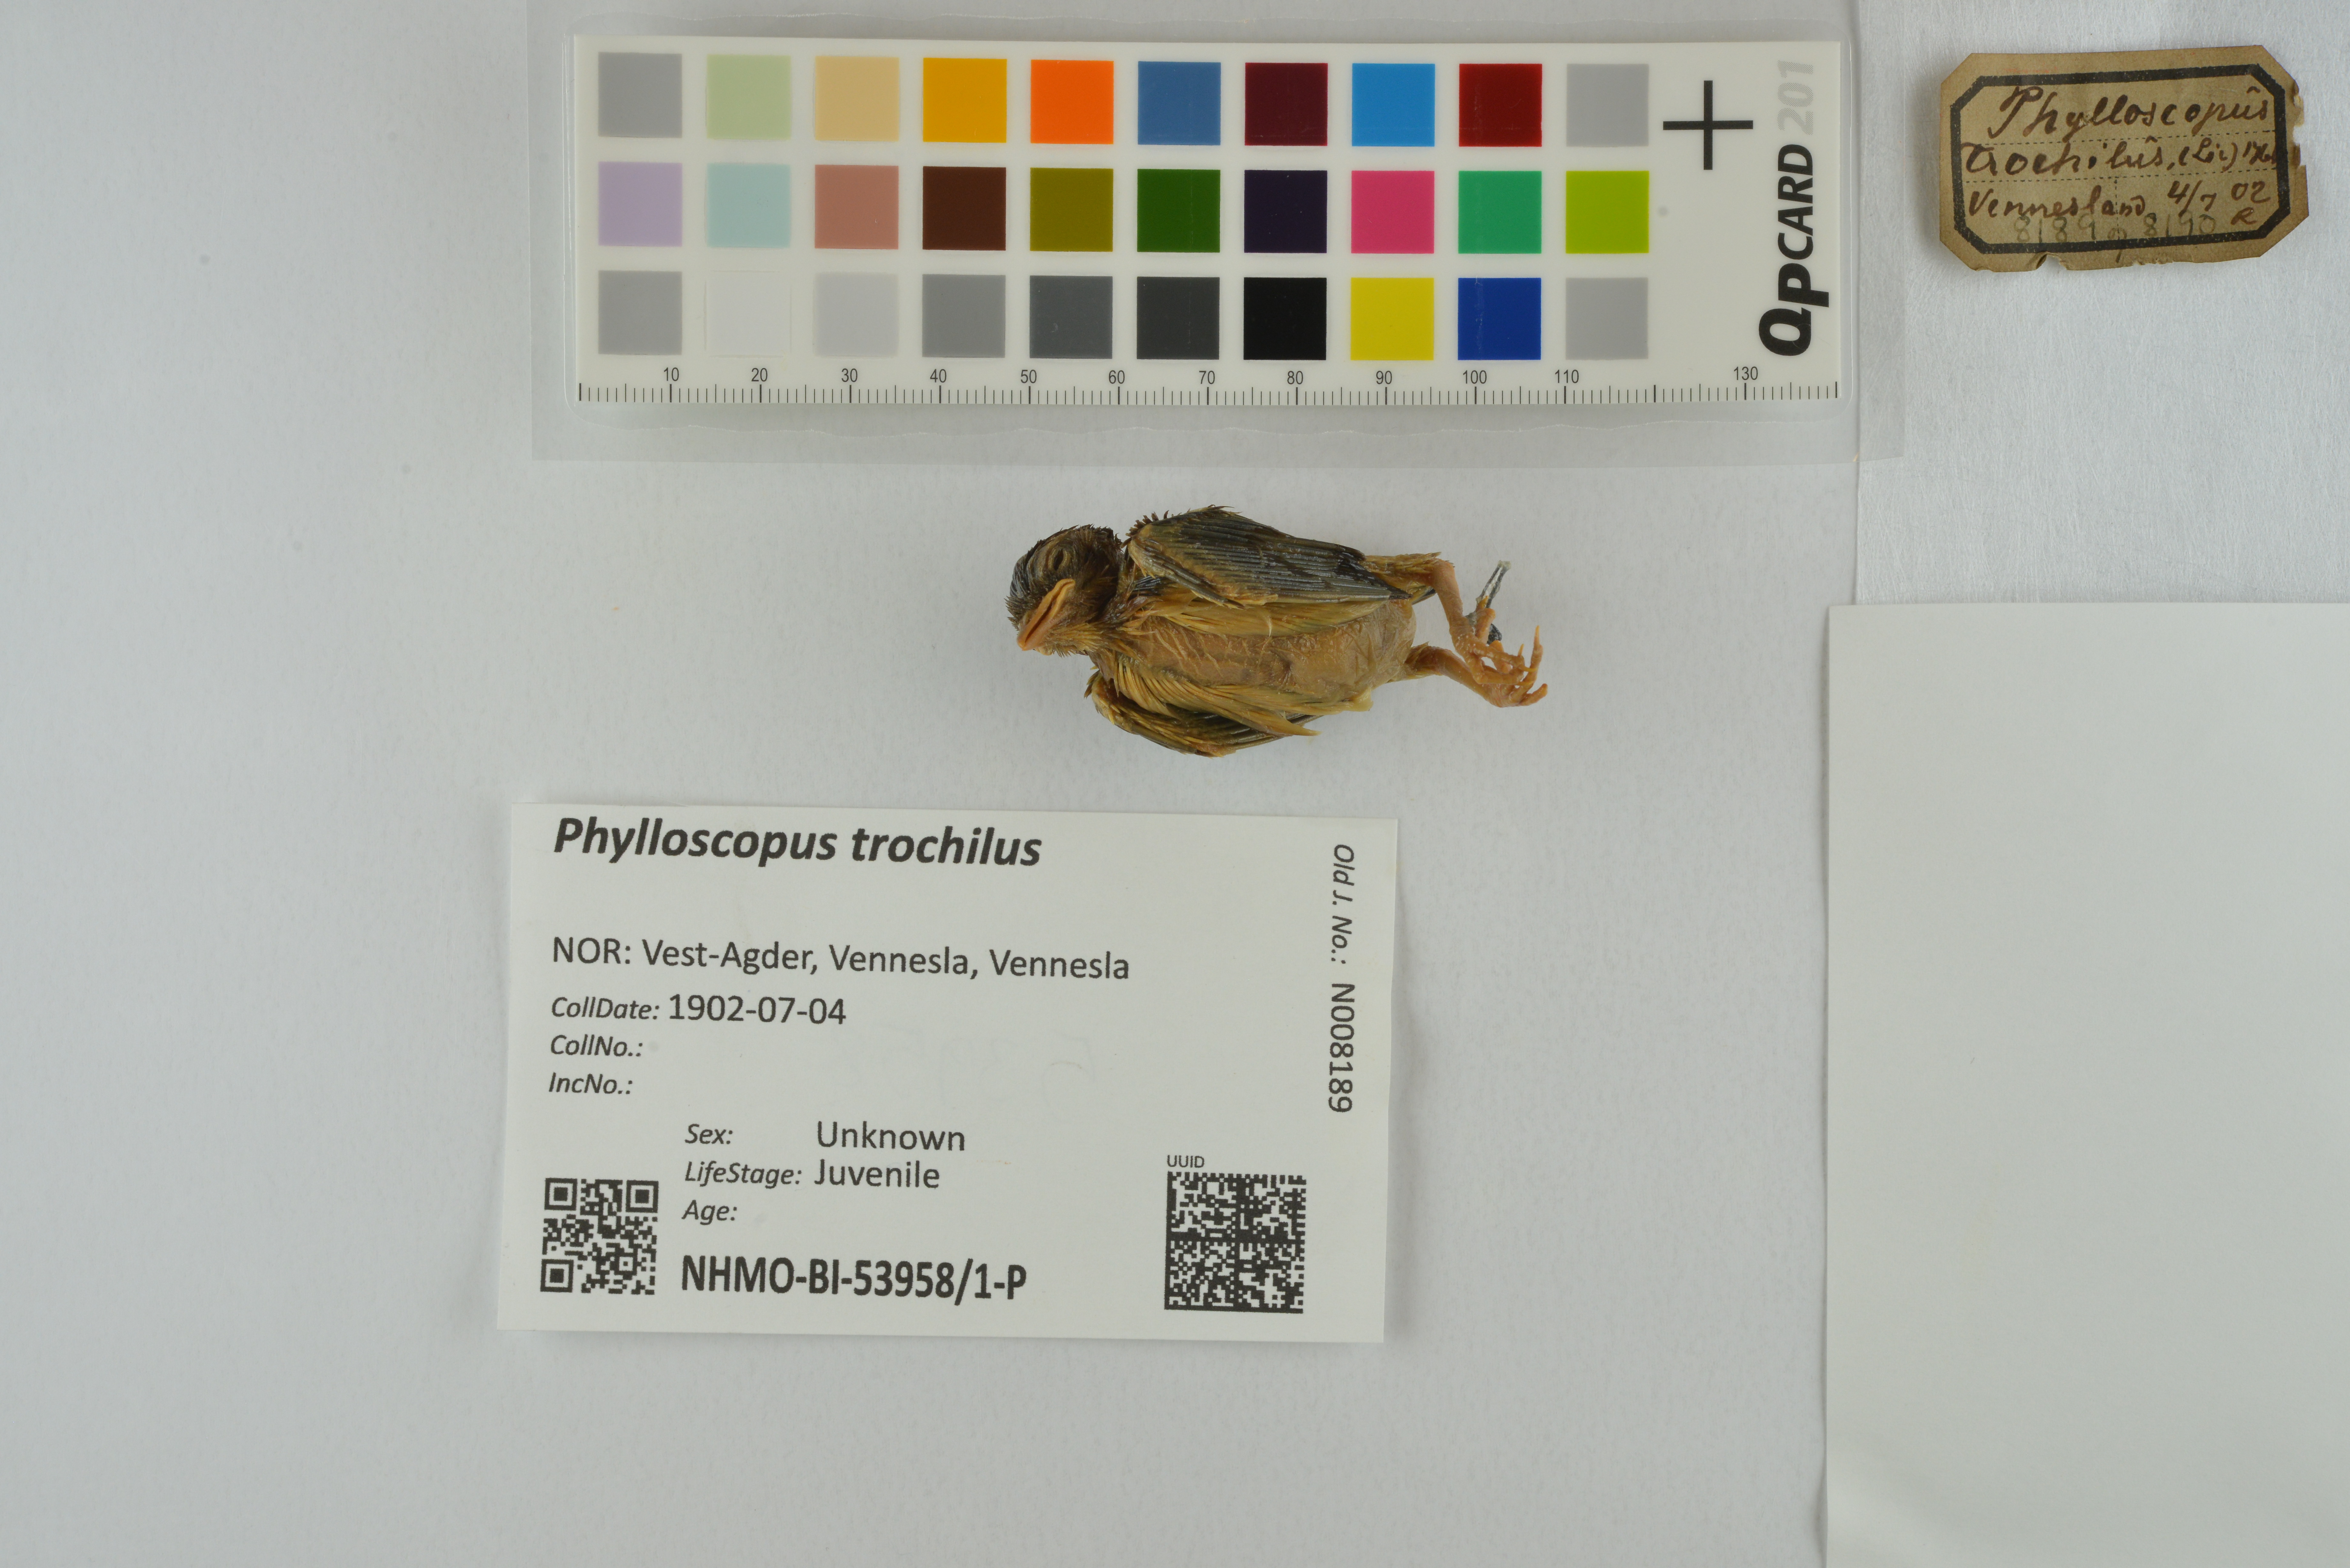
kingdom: Animalia
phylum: Chordata
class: Aves
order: Passeriformes
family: Phylloscopidae
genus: Phylloscopus
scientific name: Phylloscopus trochilus
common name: Willow warbler
